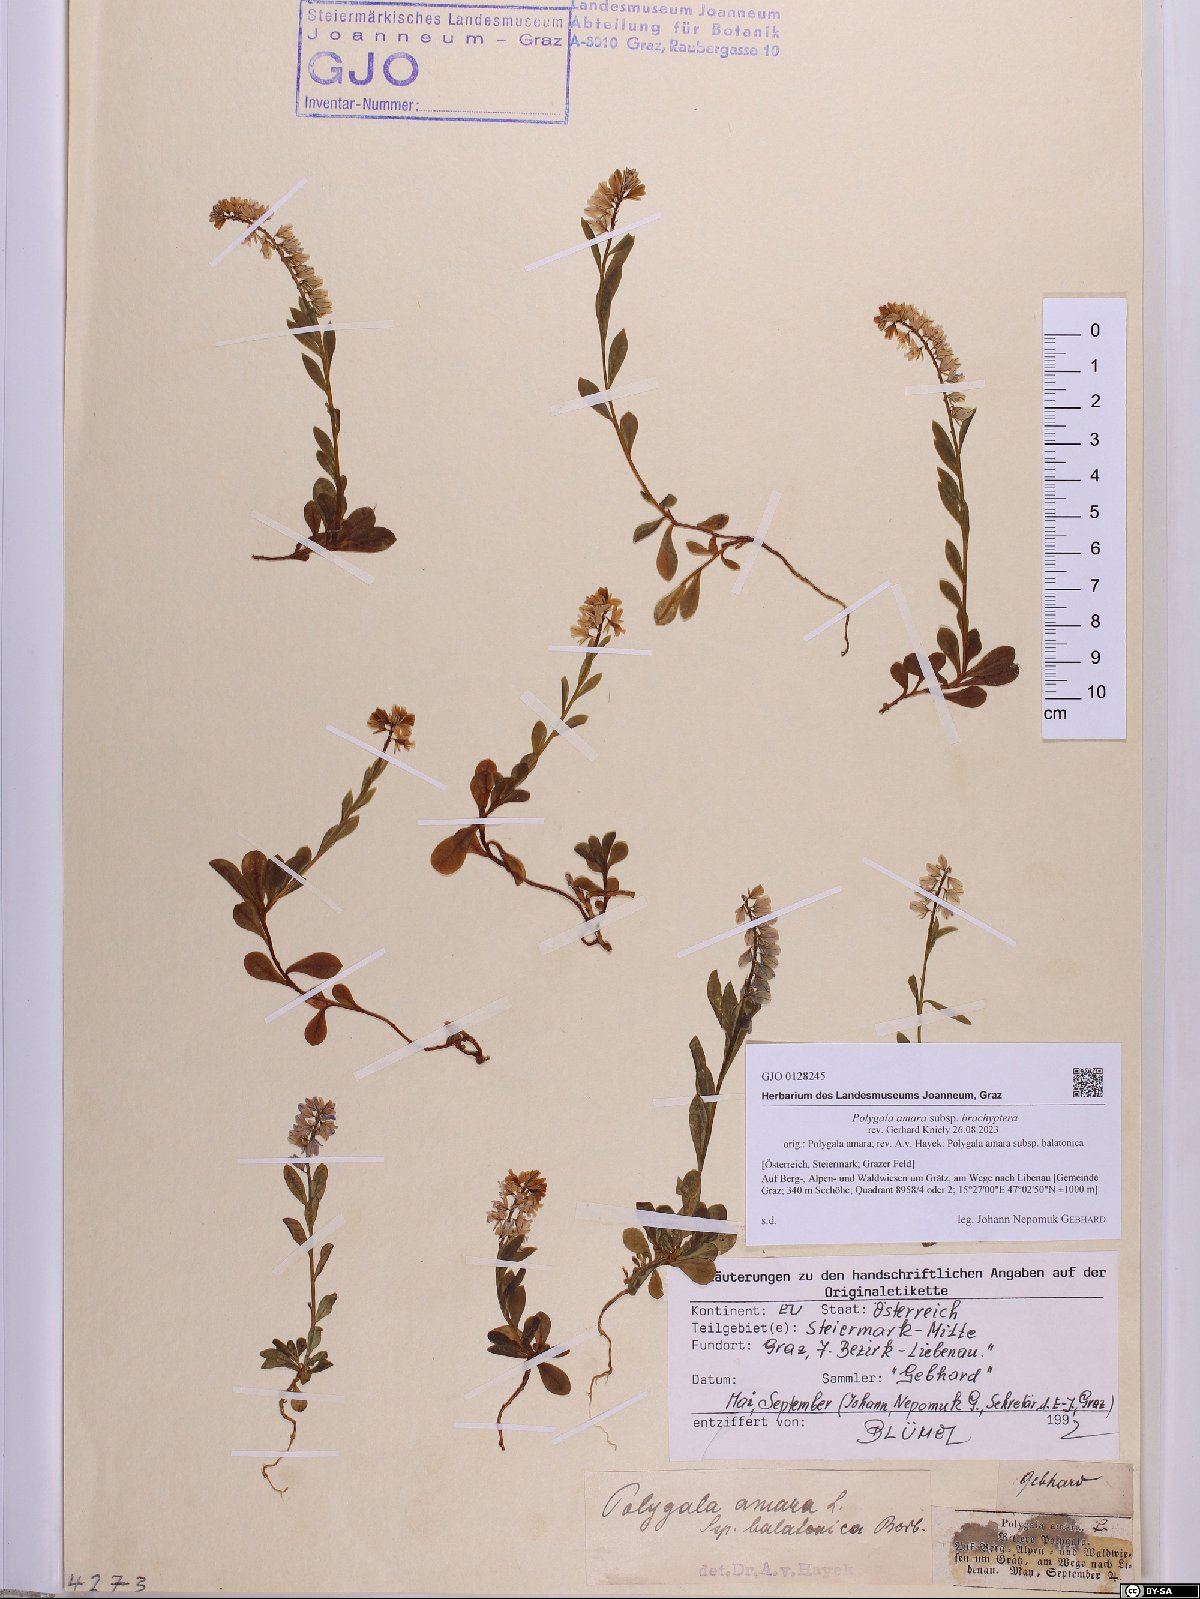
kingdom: Plantae
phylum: Tracheophyta
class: Magnoliopsida
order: Fabales
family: Polygalaceae
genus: Polygala
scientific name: Polygala amara
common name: Milkwort
